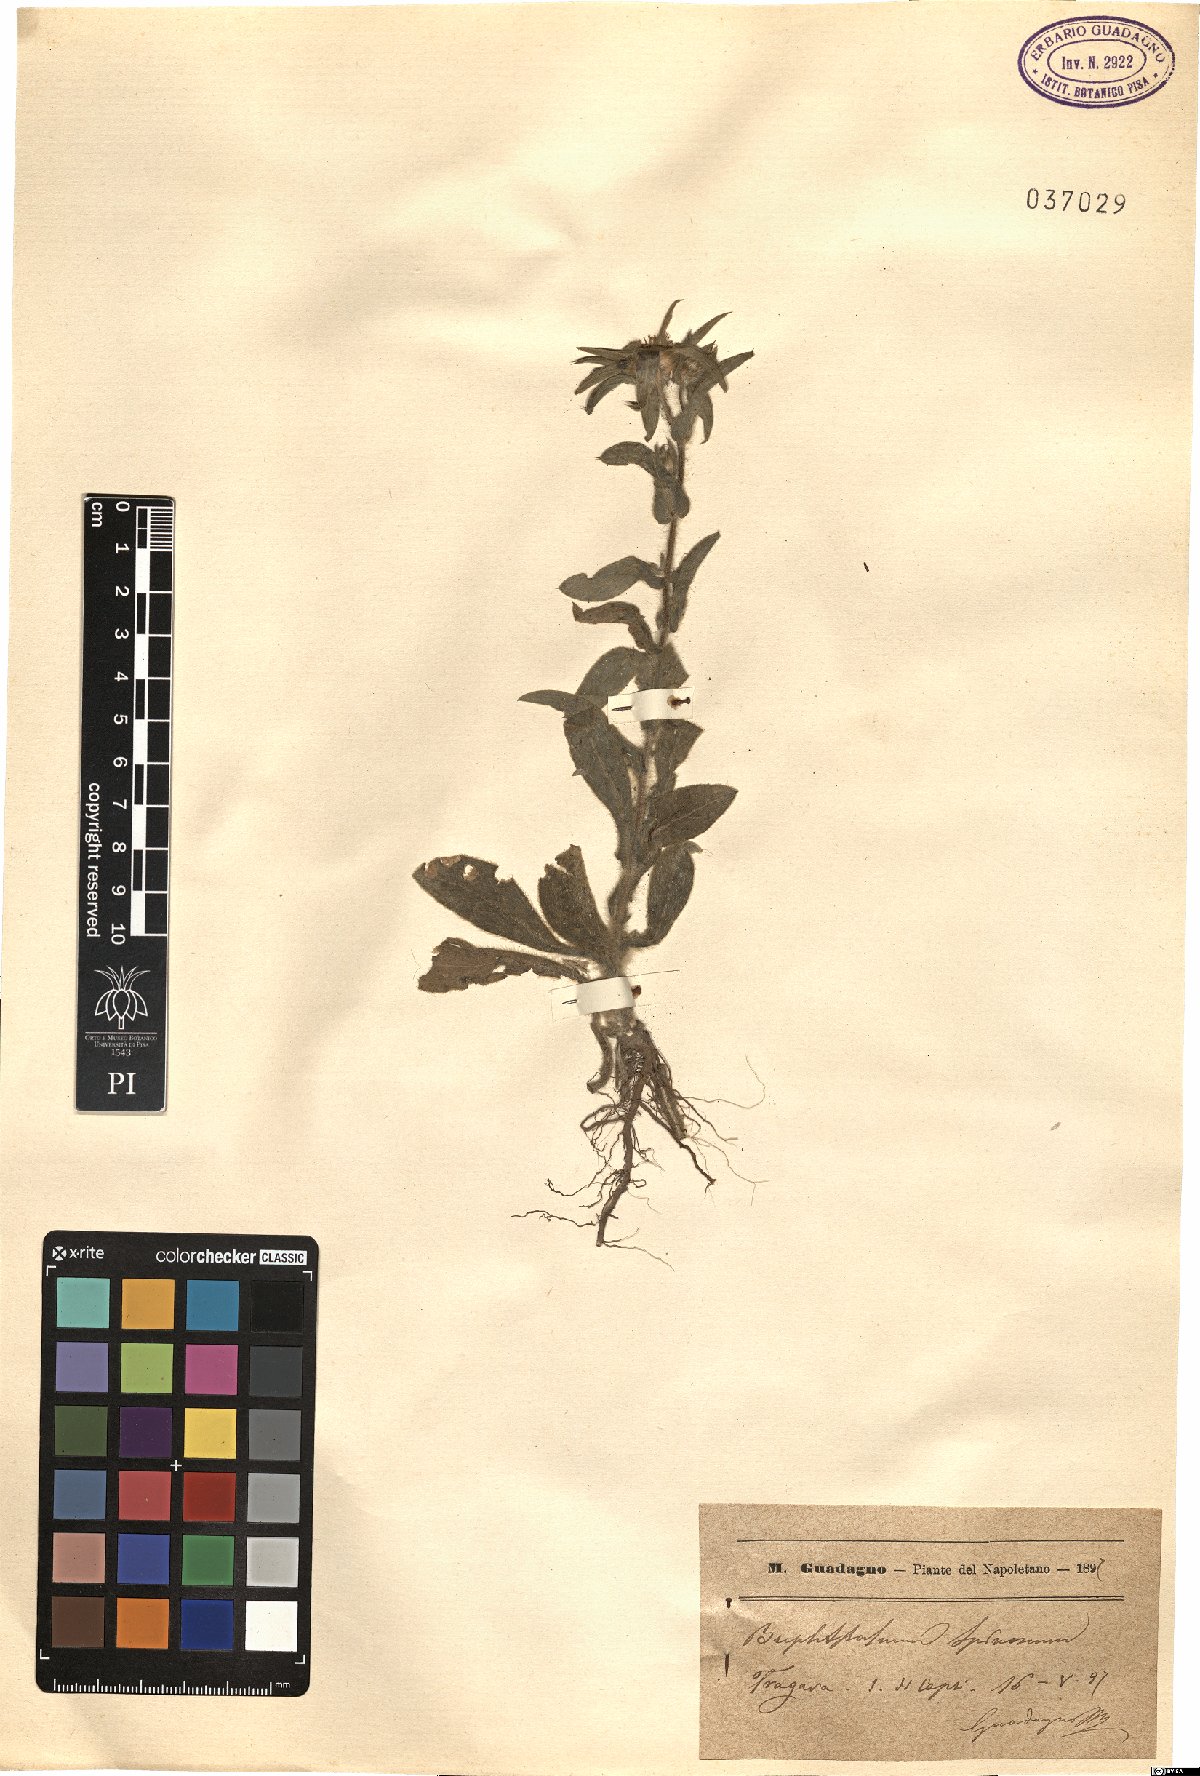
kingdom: Plantae
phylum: Tracheophyta
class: Magnoliopsida
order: Asterales
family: Asteraceae
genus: Pallenis
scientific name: Pallenis spinosa
